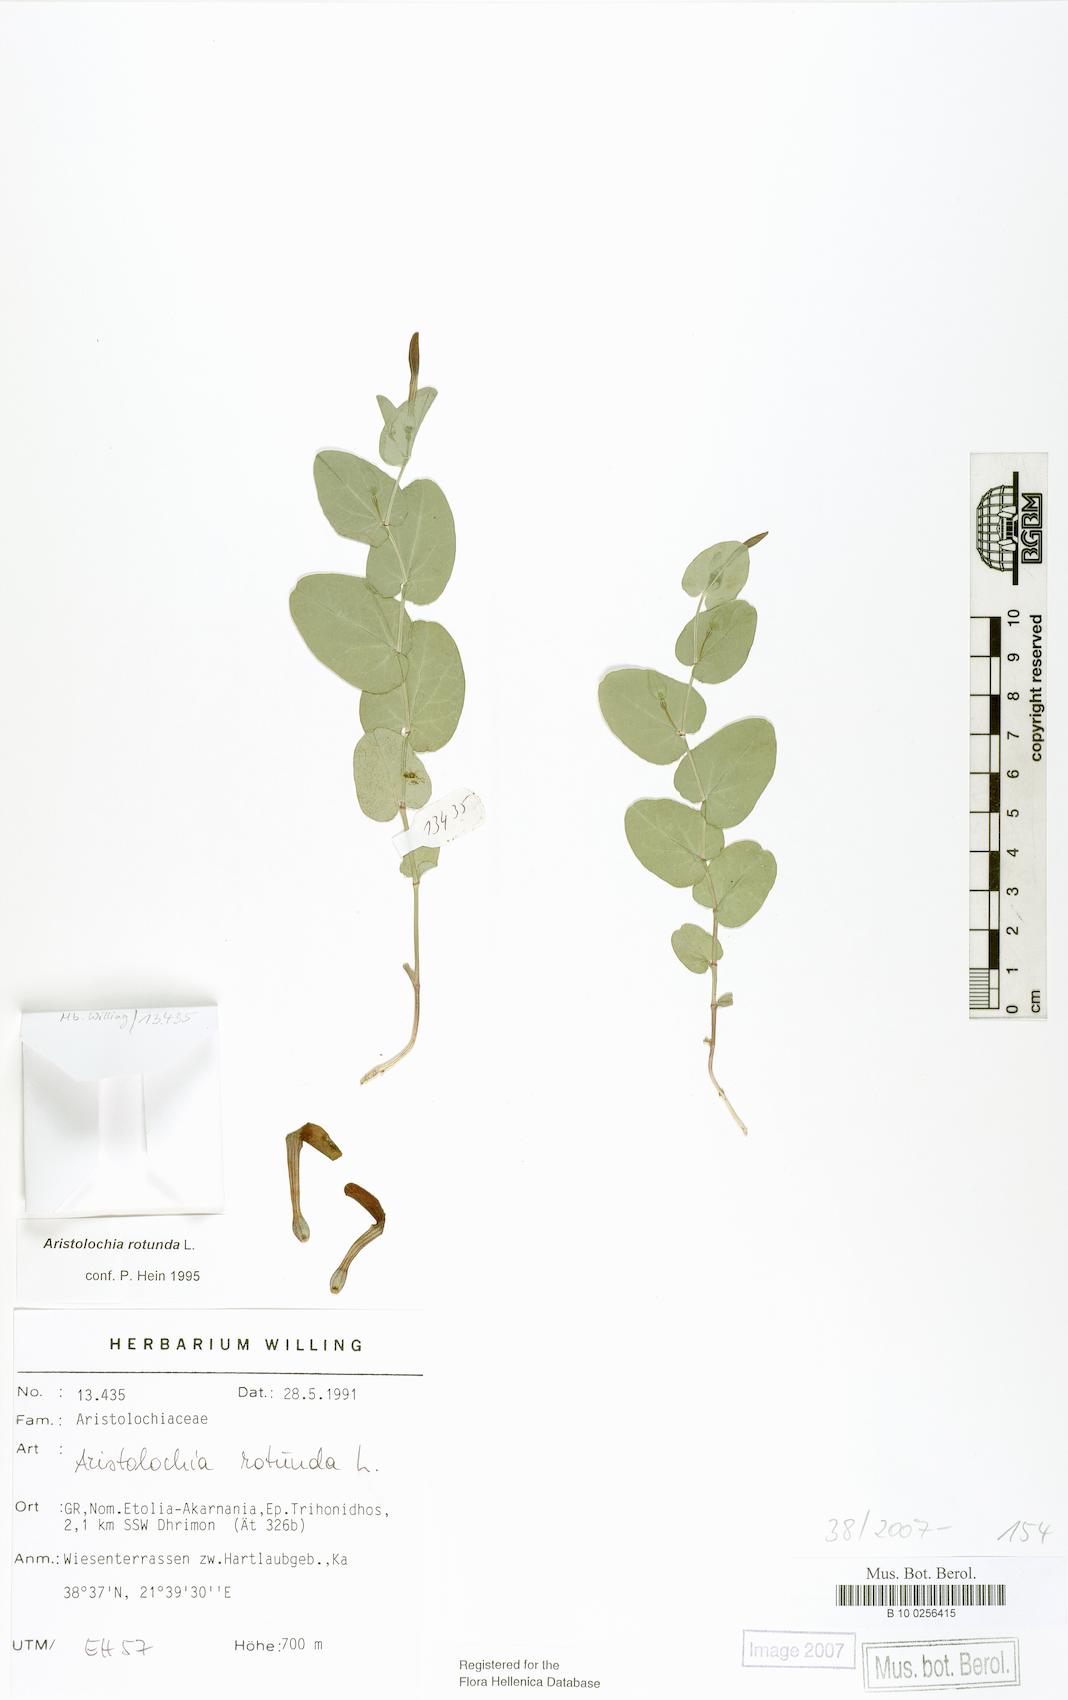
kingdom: Plantae
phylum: Tracheophyta
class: Magnoliopsida
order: Piperales
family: Aristolochiaceae
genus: Aristolochia
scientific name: Aristolochia rotunda
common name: Smearwort
